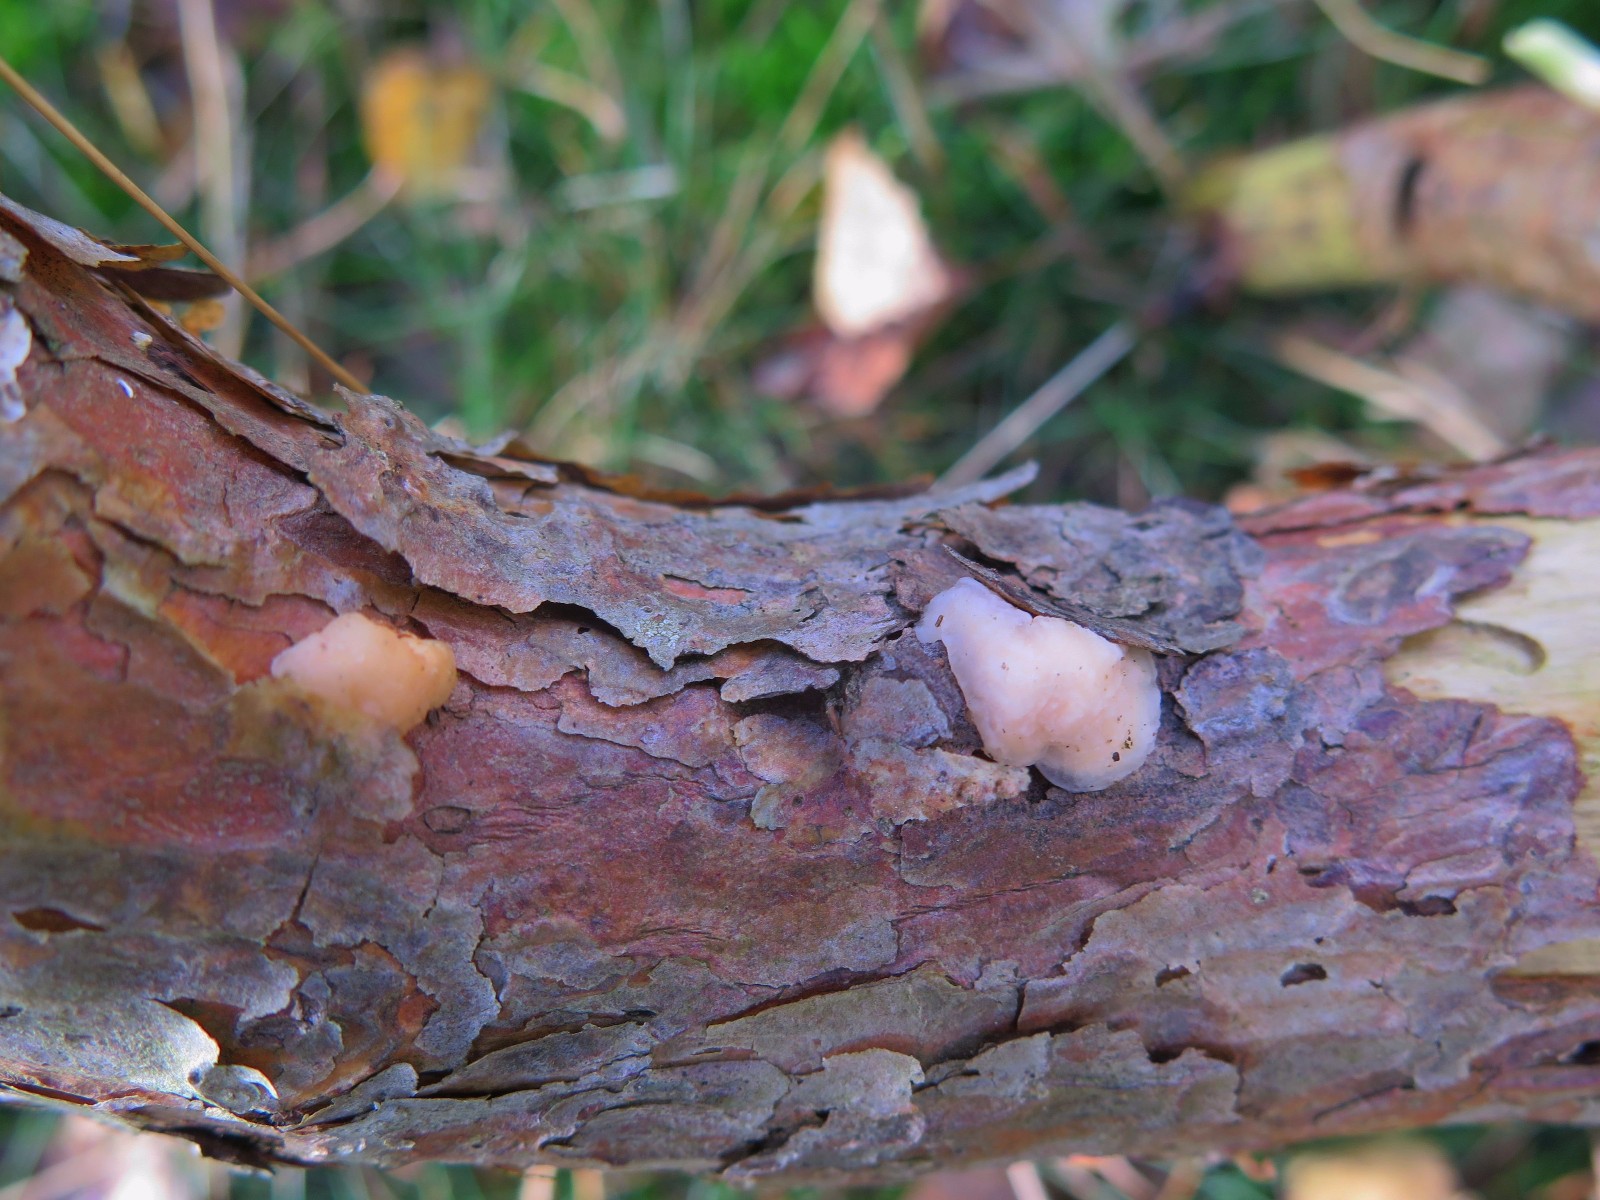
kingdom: Fungi
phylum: Basidiomycota
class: Tremellomycetes
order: Tremellales
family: Naemateliaceae
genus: Naematelia
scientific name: Naematelia encephala
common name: fyrre-bævresvamp
